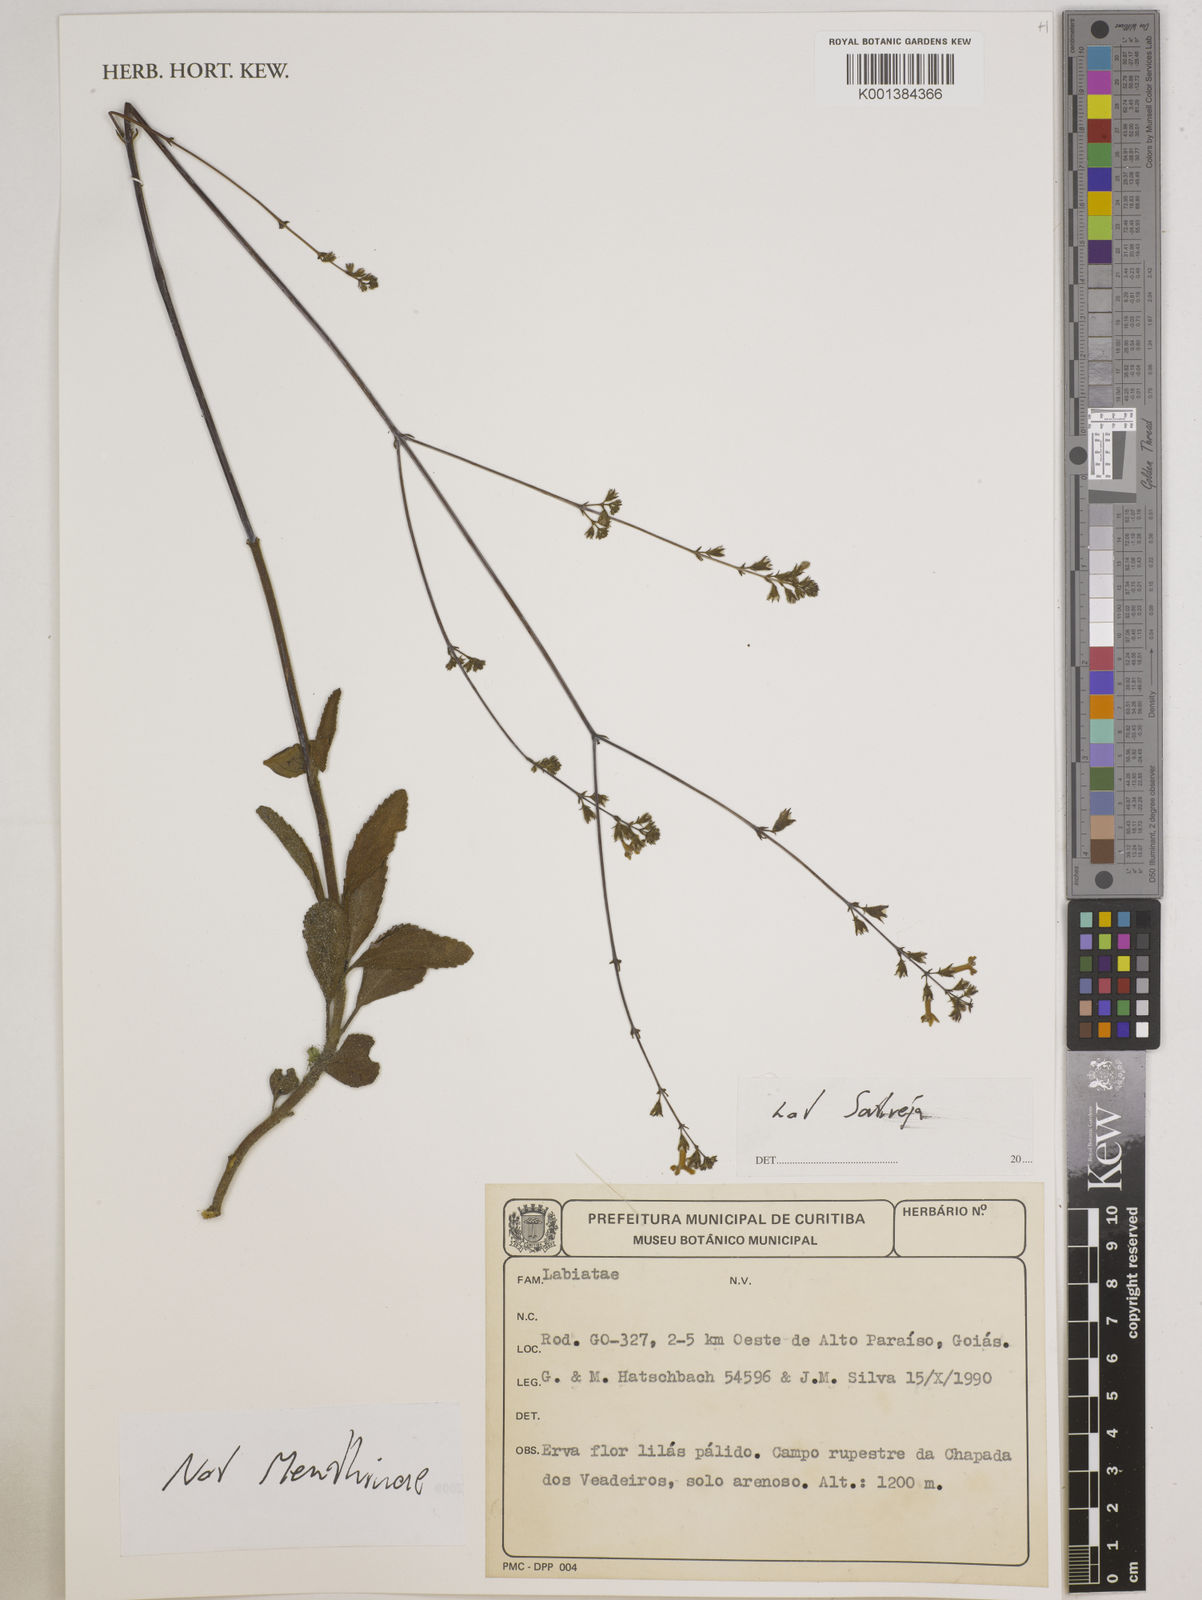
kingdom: Plantae
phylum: Tracheophyta
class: Magnoliopsida
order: Lamiales
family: Lamiaceae
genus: Eriope
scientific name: Eriope
